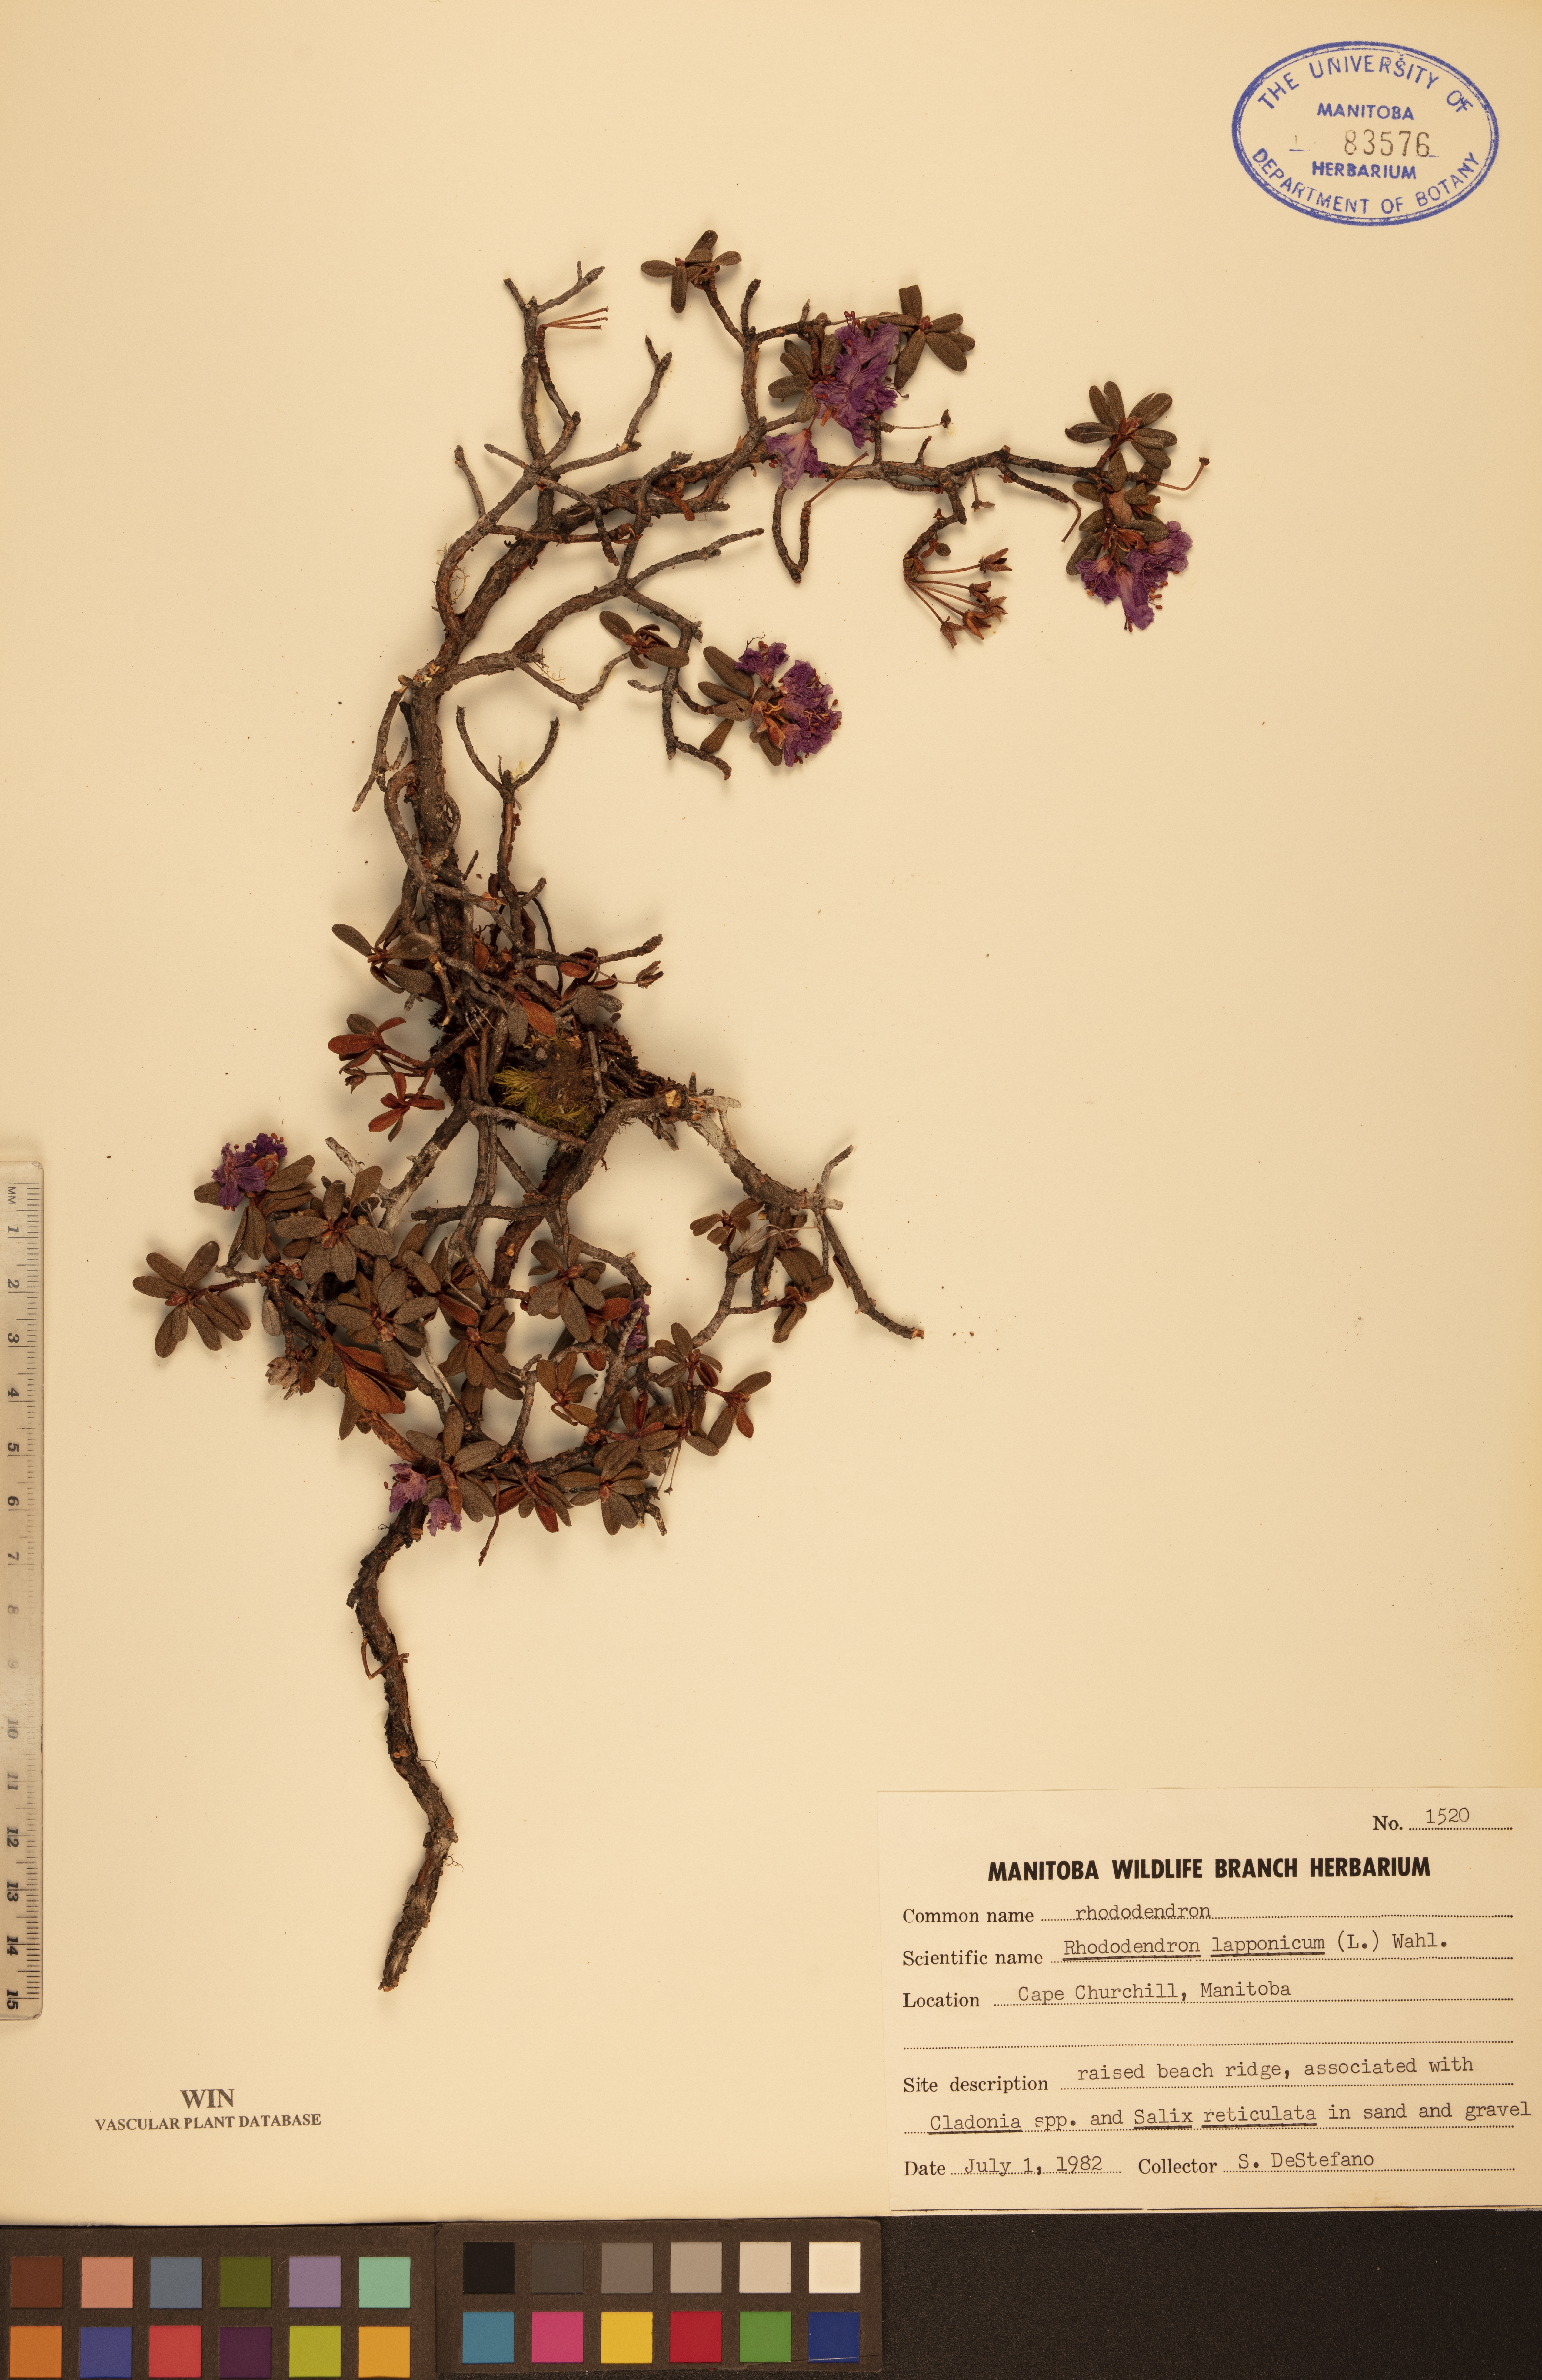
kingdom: Plantae
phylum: Tracheophyta
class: Magnoliopsida
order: Ericales
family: Ericaceae
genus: Rhododendron
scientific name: Rhododendron lapponicum
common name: Lapland rhododendron
